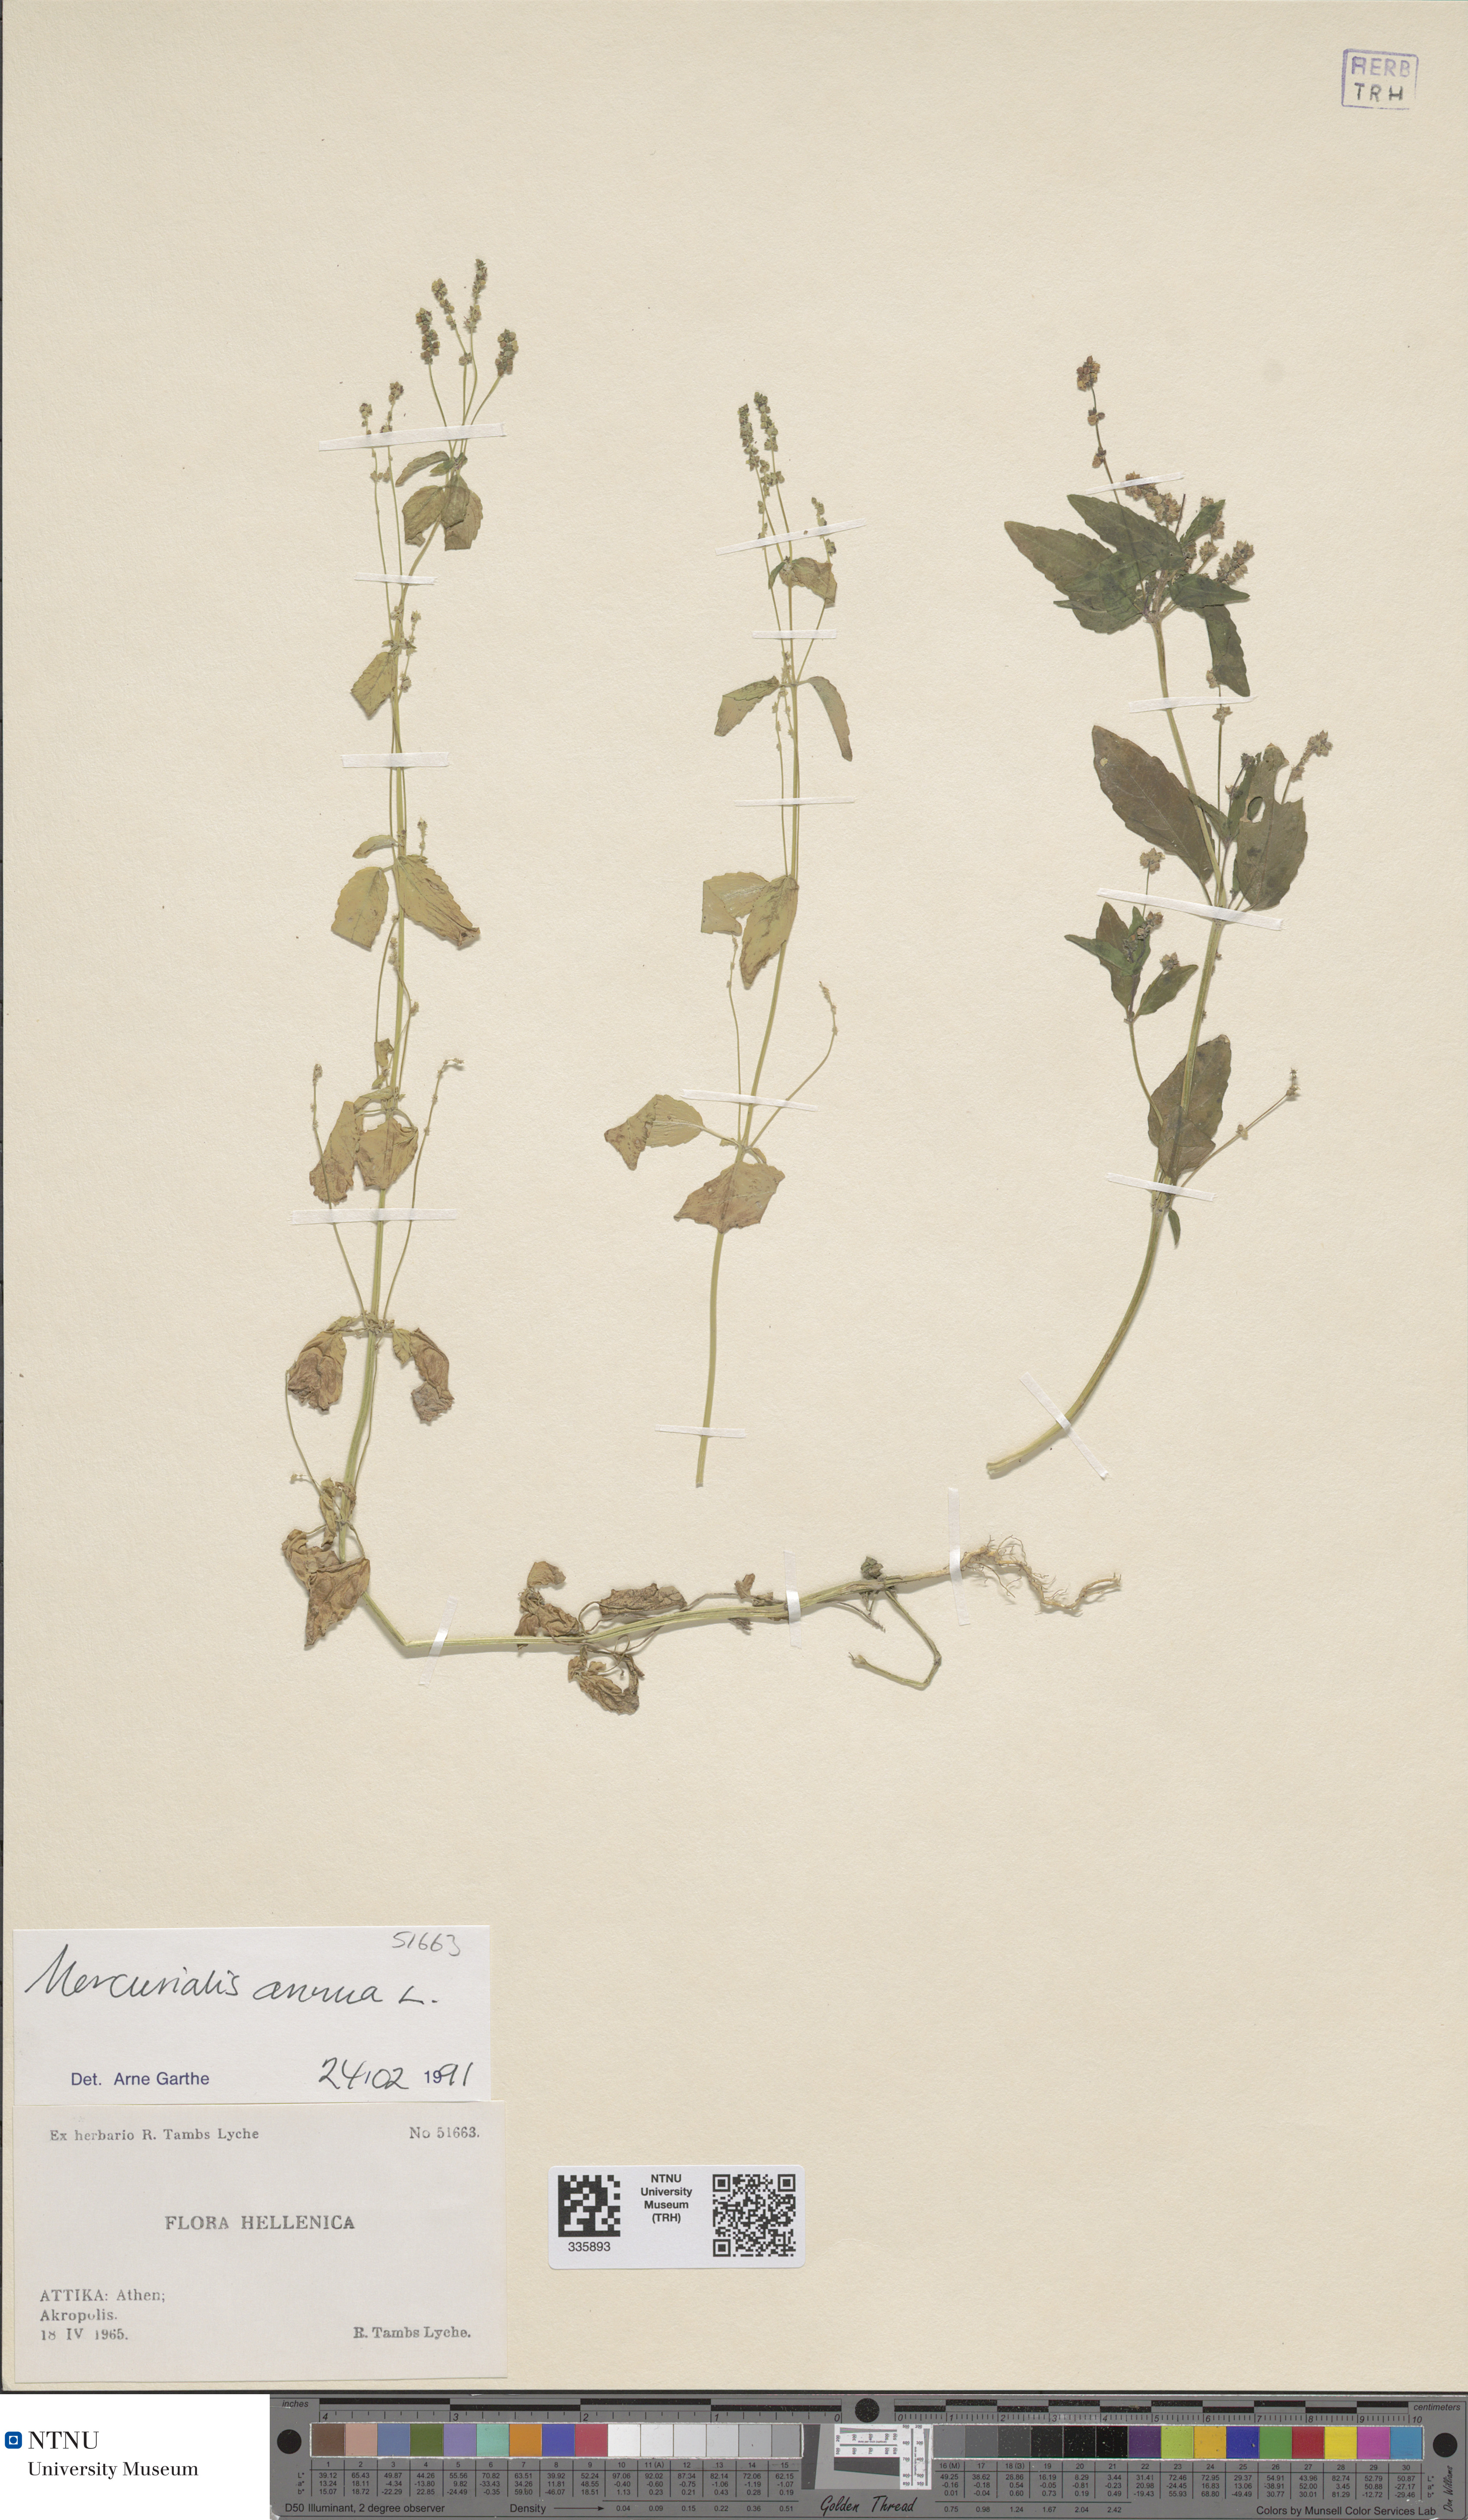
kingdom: Plantae
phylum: Tracheophyta
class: Magnoliopsida
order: Malpighiales
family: Euphorbiaceae
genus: Mercurialis
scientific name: Mercurialis annua
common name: Annual mercury
